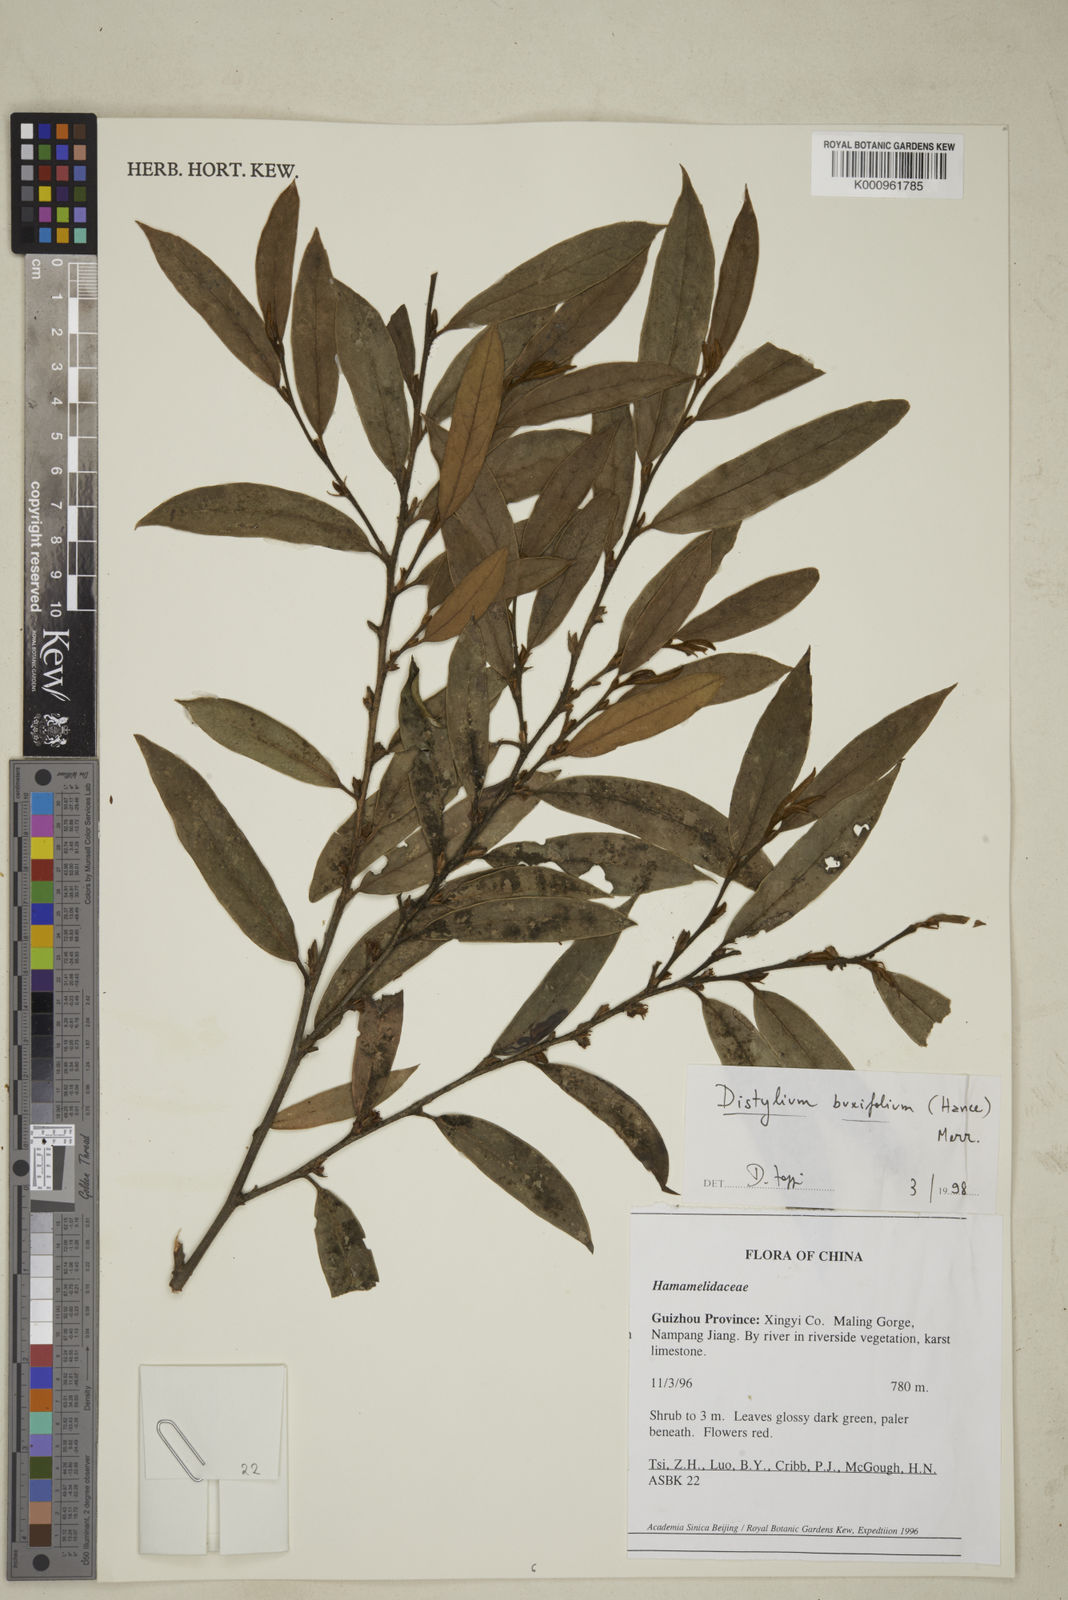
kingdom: Plantae
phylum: Tracheophyta
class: Magnoliopsida
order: Saxifragales
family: Hamamelidaceae
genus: Distylium
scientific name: Distylium buxifolium
